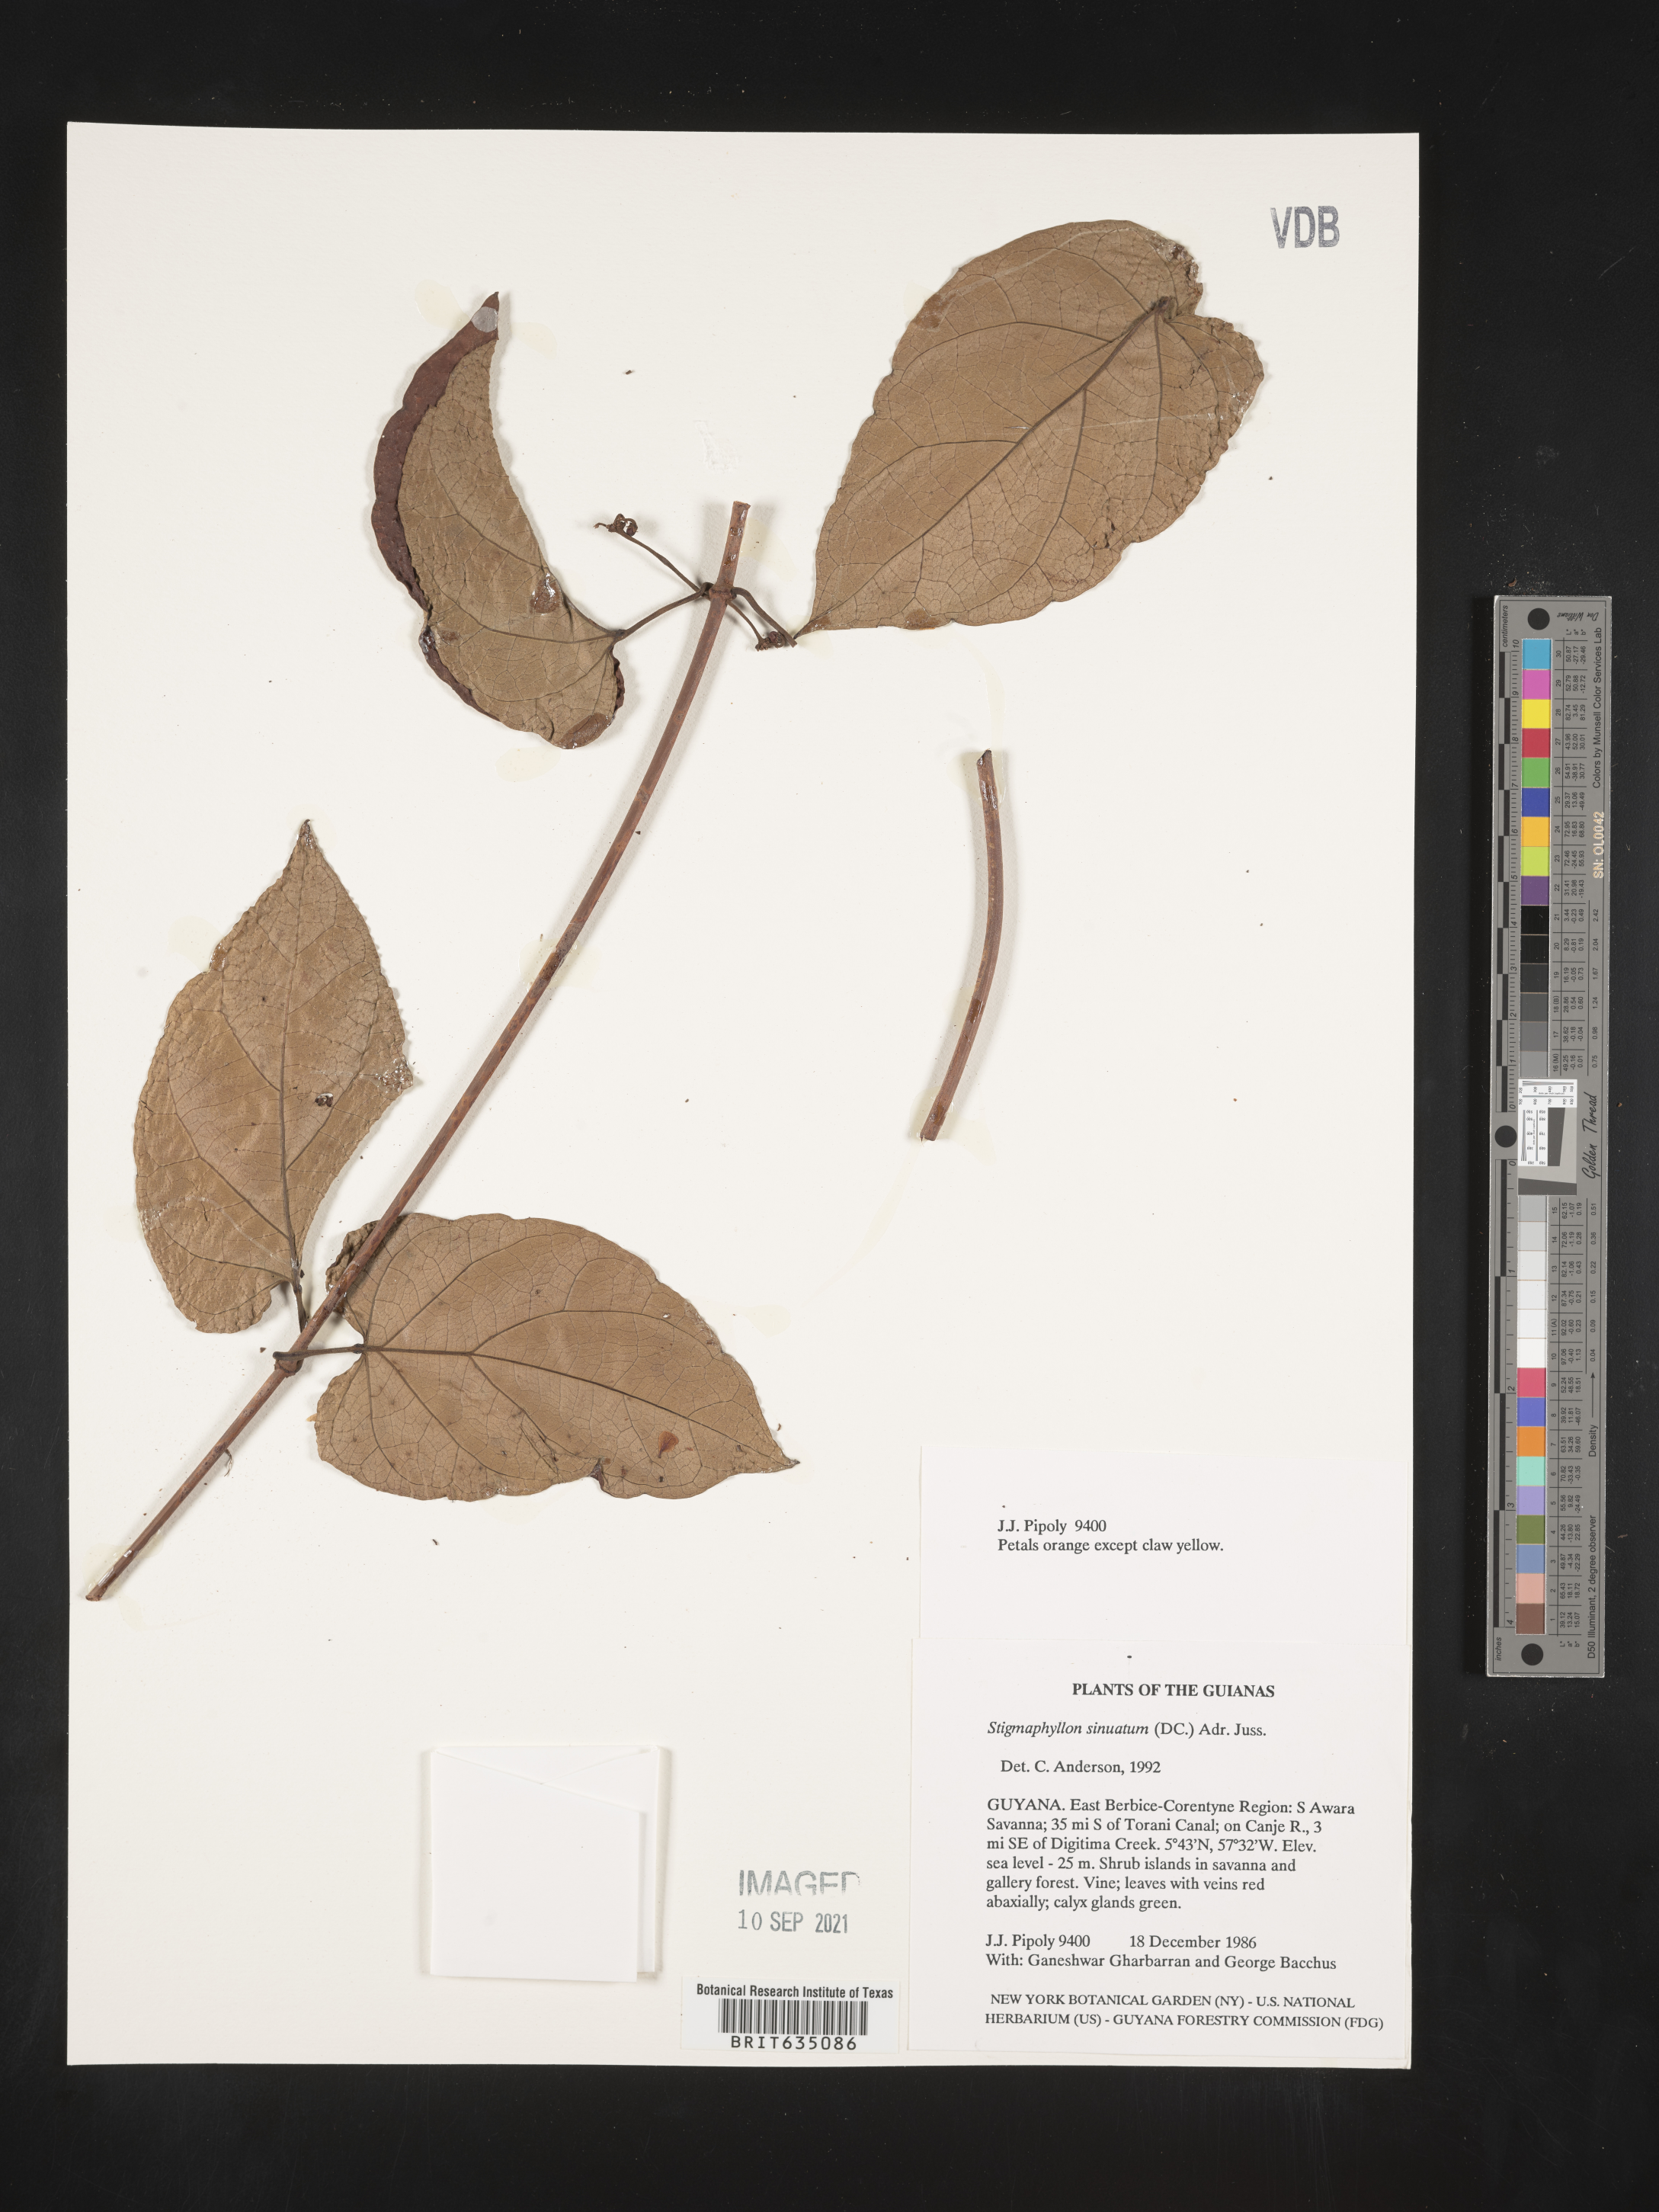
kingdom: Plantae
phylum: Tracheophyta
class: Magnoliopsida
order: Malpighiales
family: Malpighiaceae
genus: Stigmaphyllon
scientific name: Stigmaphyllon
